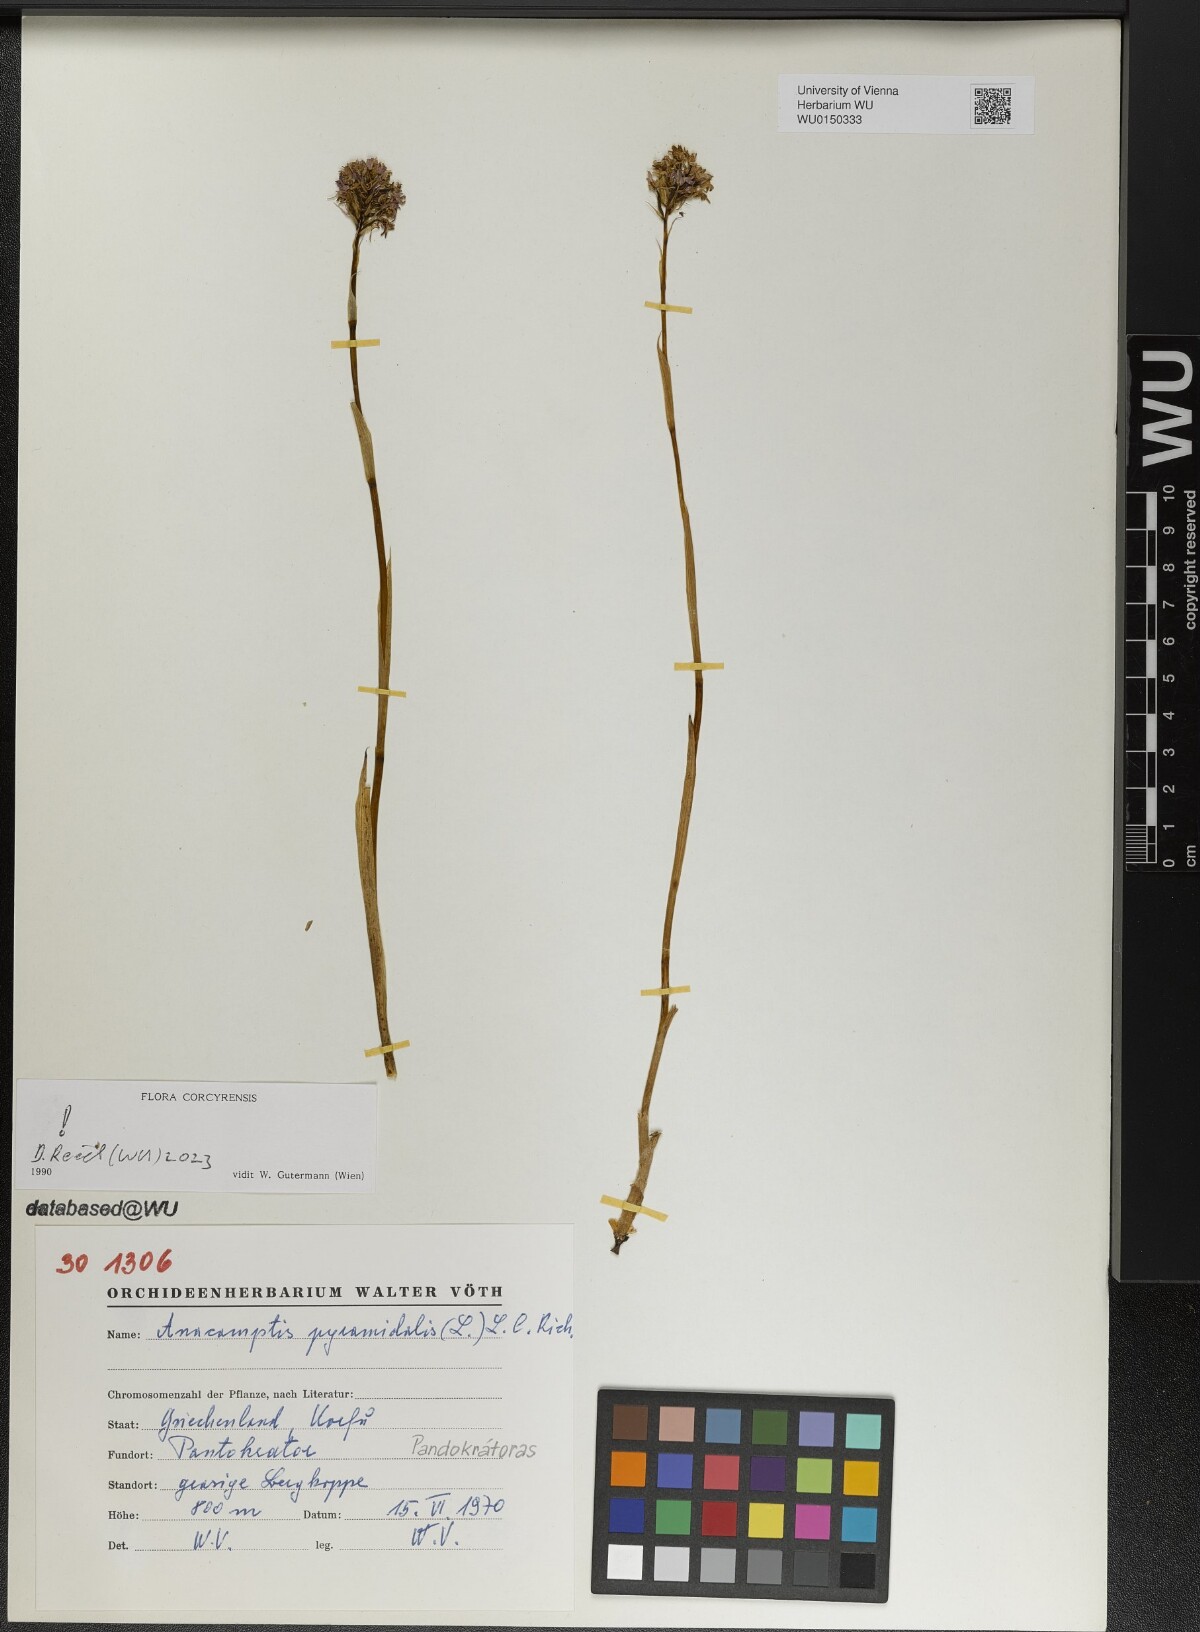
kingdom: Plantae
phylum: Tracheophyta
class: Liliopsida
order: Asparagales
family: Orchidaceae
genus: Anacamptis
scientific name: Anacamptis pyramidalis
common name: Pyramidal orchid
